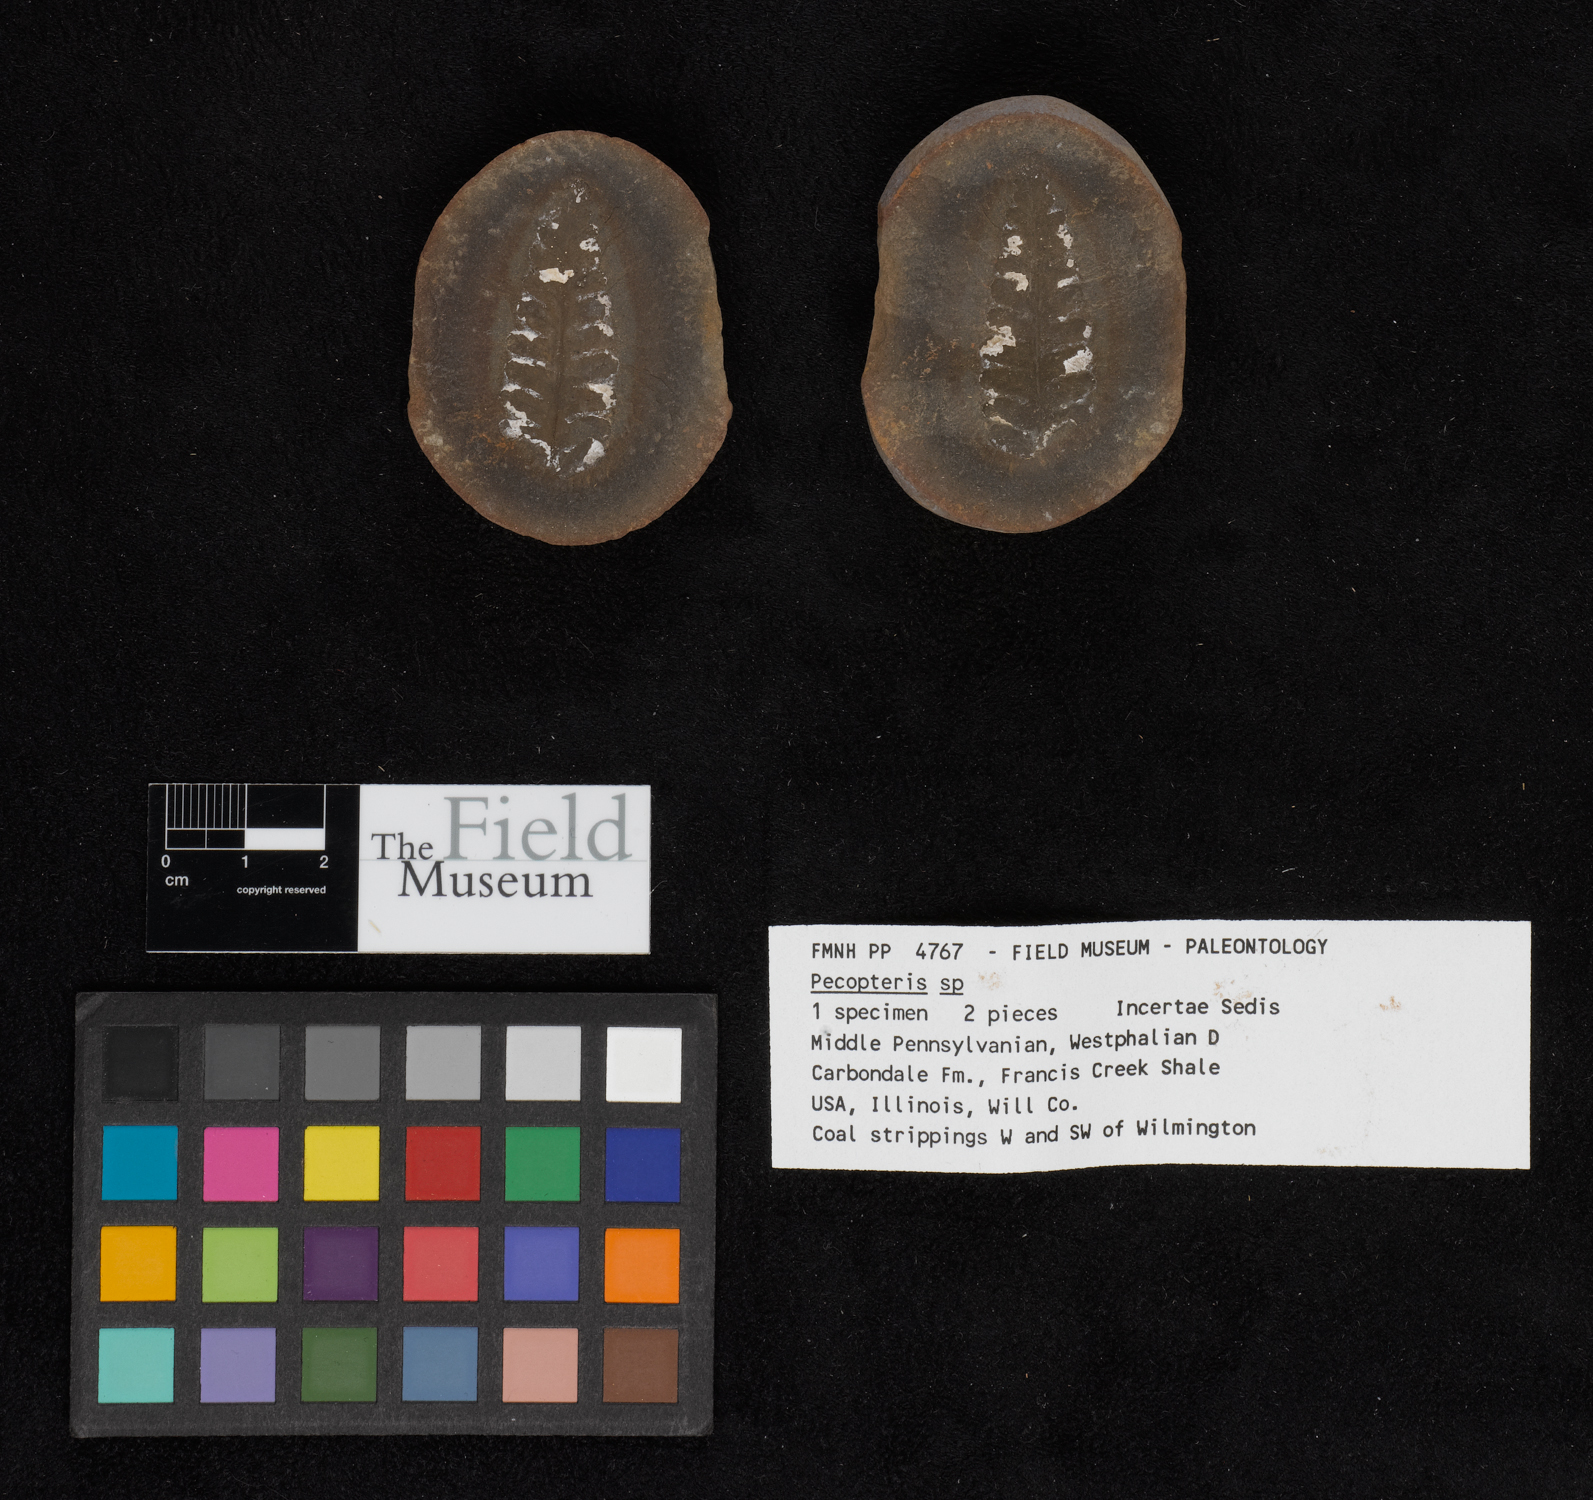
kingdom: Plantae
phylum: Tracheophyta
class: Polypodiopsida
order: Marattiales
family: Asterothecaceae
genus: Pecopteris
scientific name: Pecopteris
